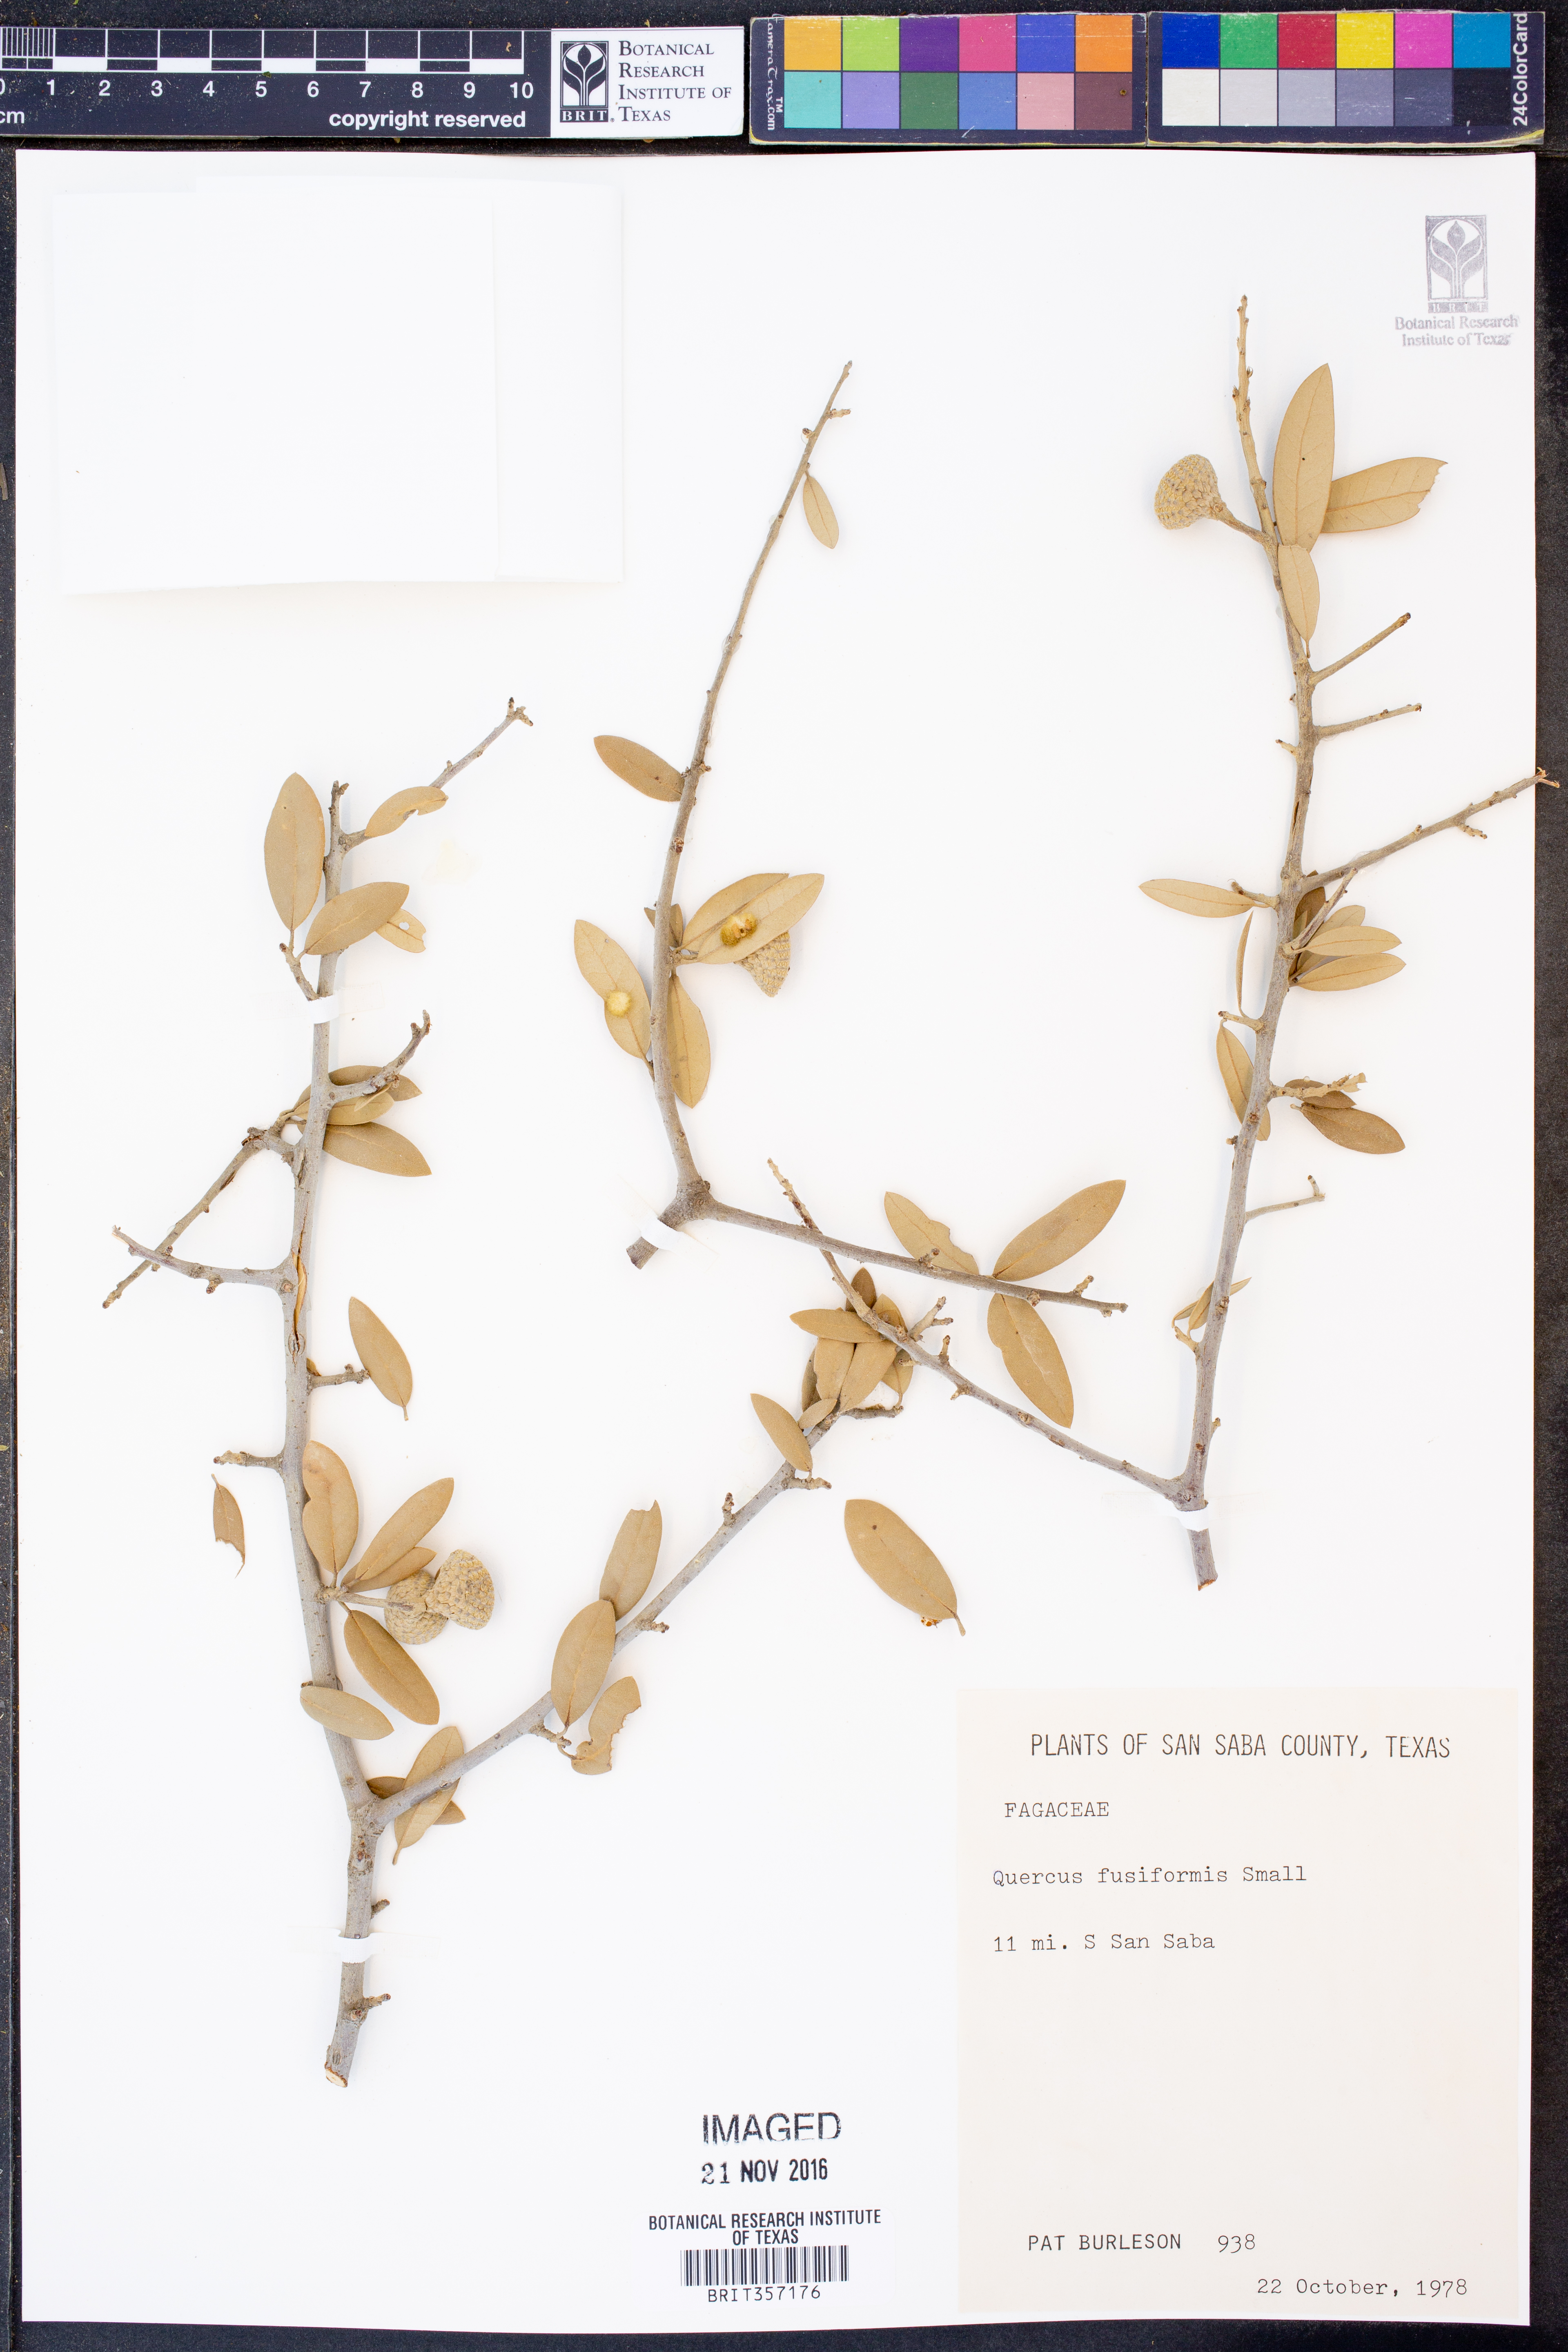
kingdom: Plantae
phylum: Tracheophyta
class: Magnoliopsida
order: Fagales
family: Fagaceae
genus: Quercus
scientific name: Quercus fusiformis
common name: Texas live oak
